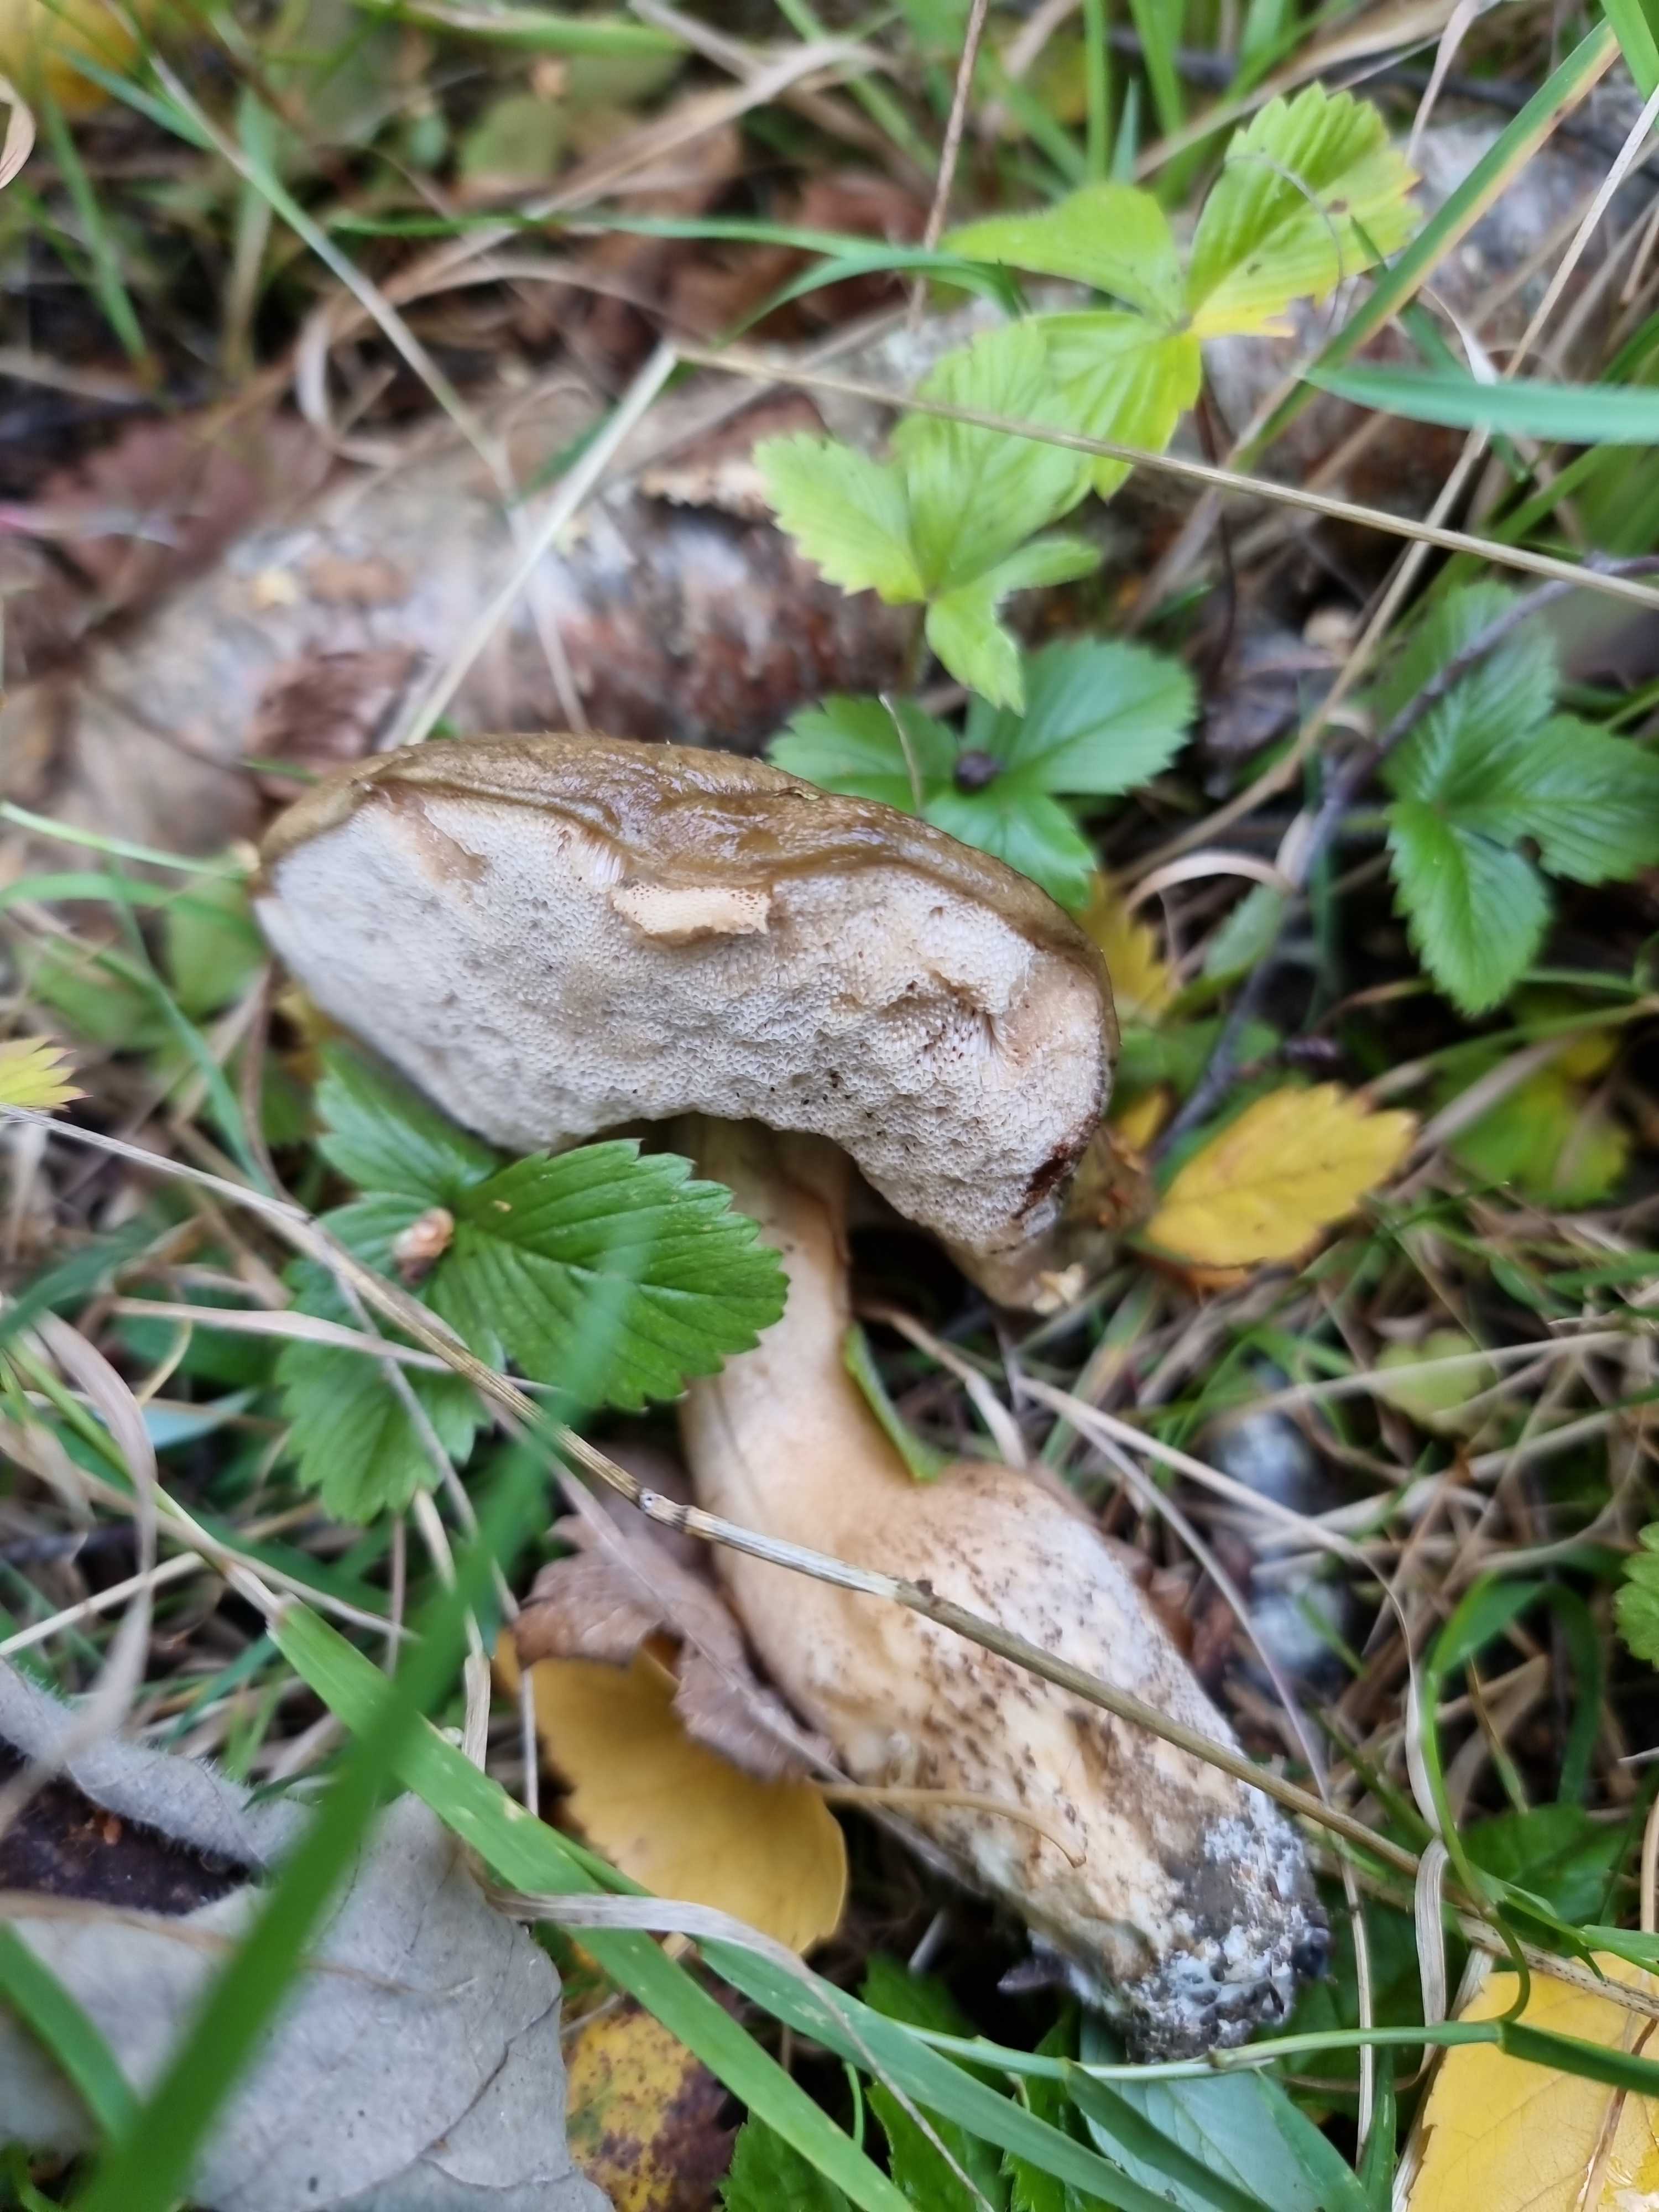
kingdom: Fungi
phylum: Basidiomycota
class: Agaricomycetes
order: Boletales
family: Boletaceae
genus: Tylopilus
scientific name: Tylopilus felleus
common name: galderørhat
